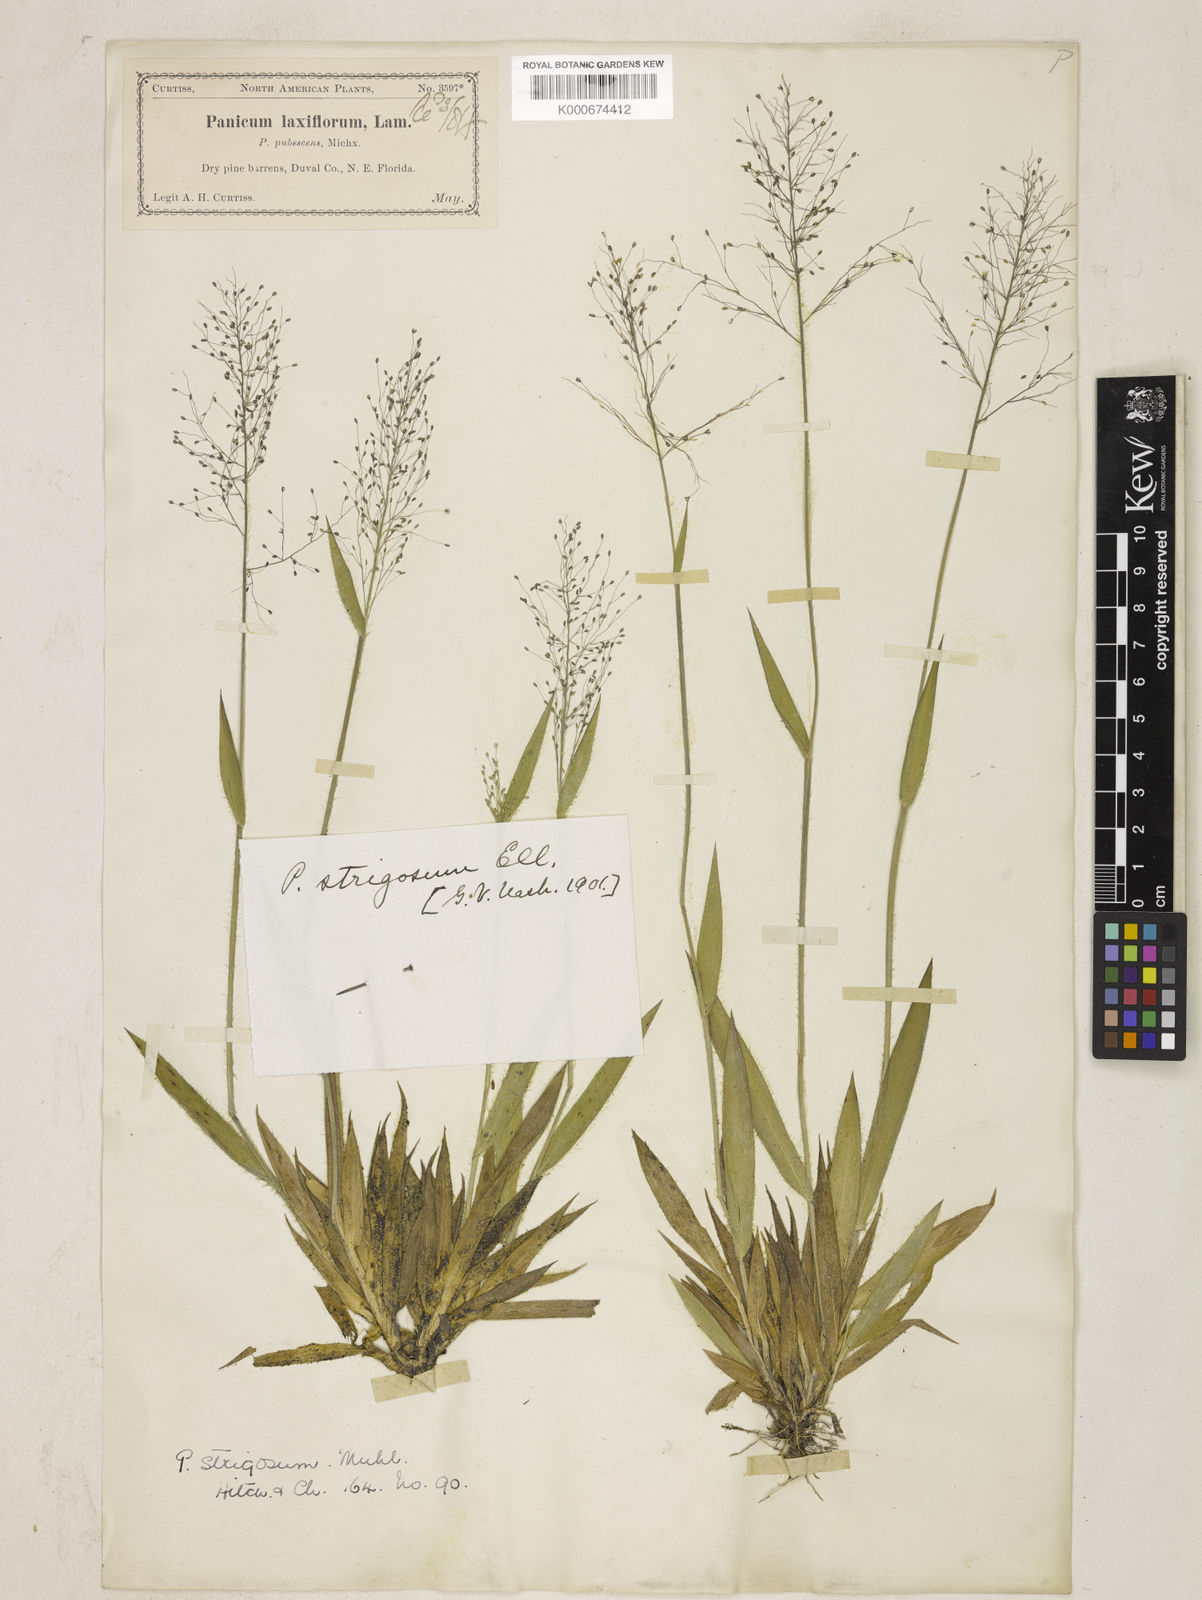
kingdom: Plantae
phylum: Tracheophyta
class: Liliopsida
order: Poales
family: Poaceae
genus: Dichanthelium
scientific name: Dichanthelium strigosum
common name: Cushion-tuft panic grass
